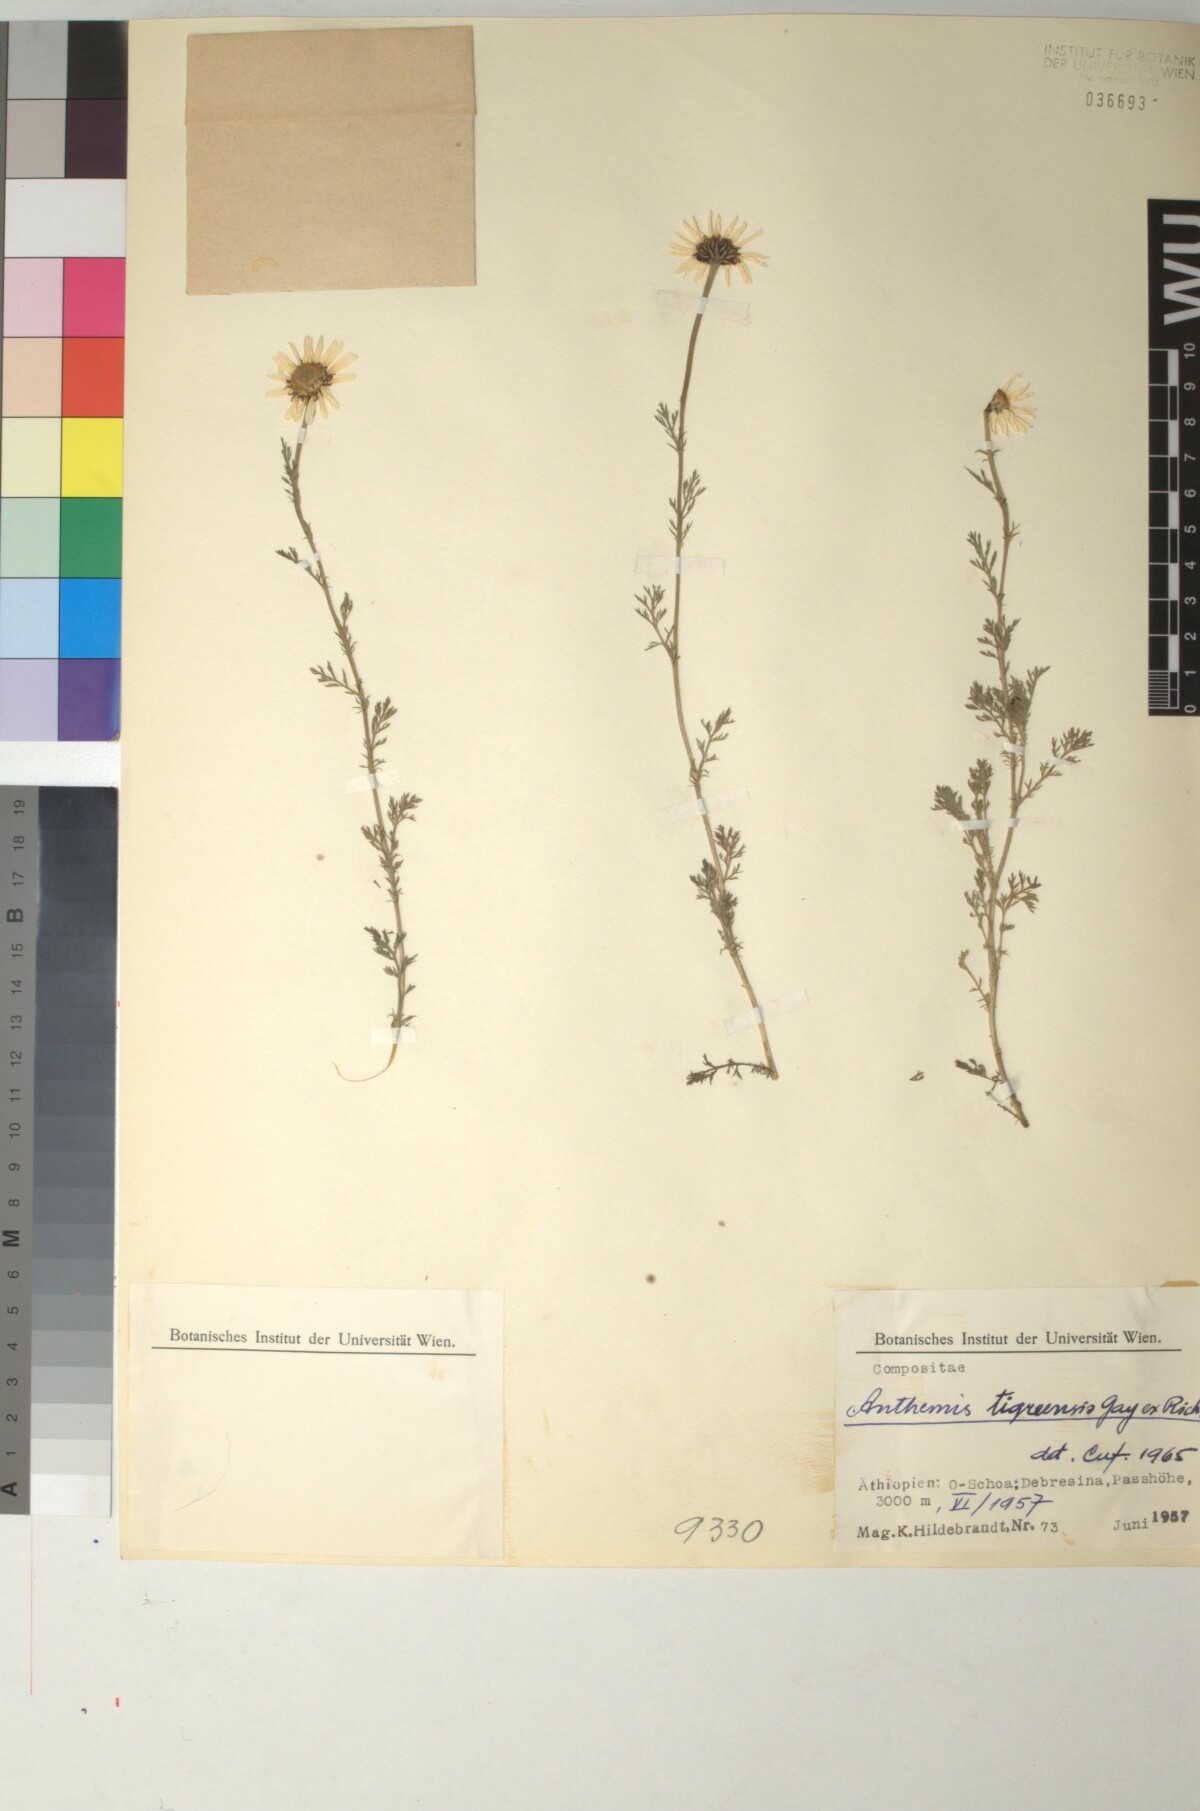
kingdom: Plantae
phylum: Tracheophyta
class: Magnoliopsida
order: Asterales
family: Asteraceae
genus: Anthemis
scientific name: Anthemis tigreensis
